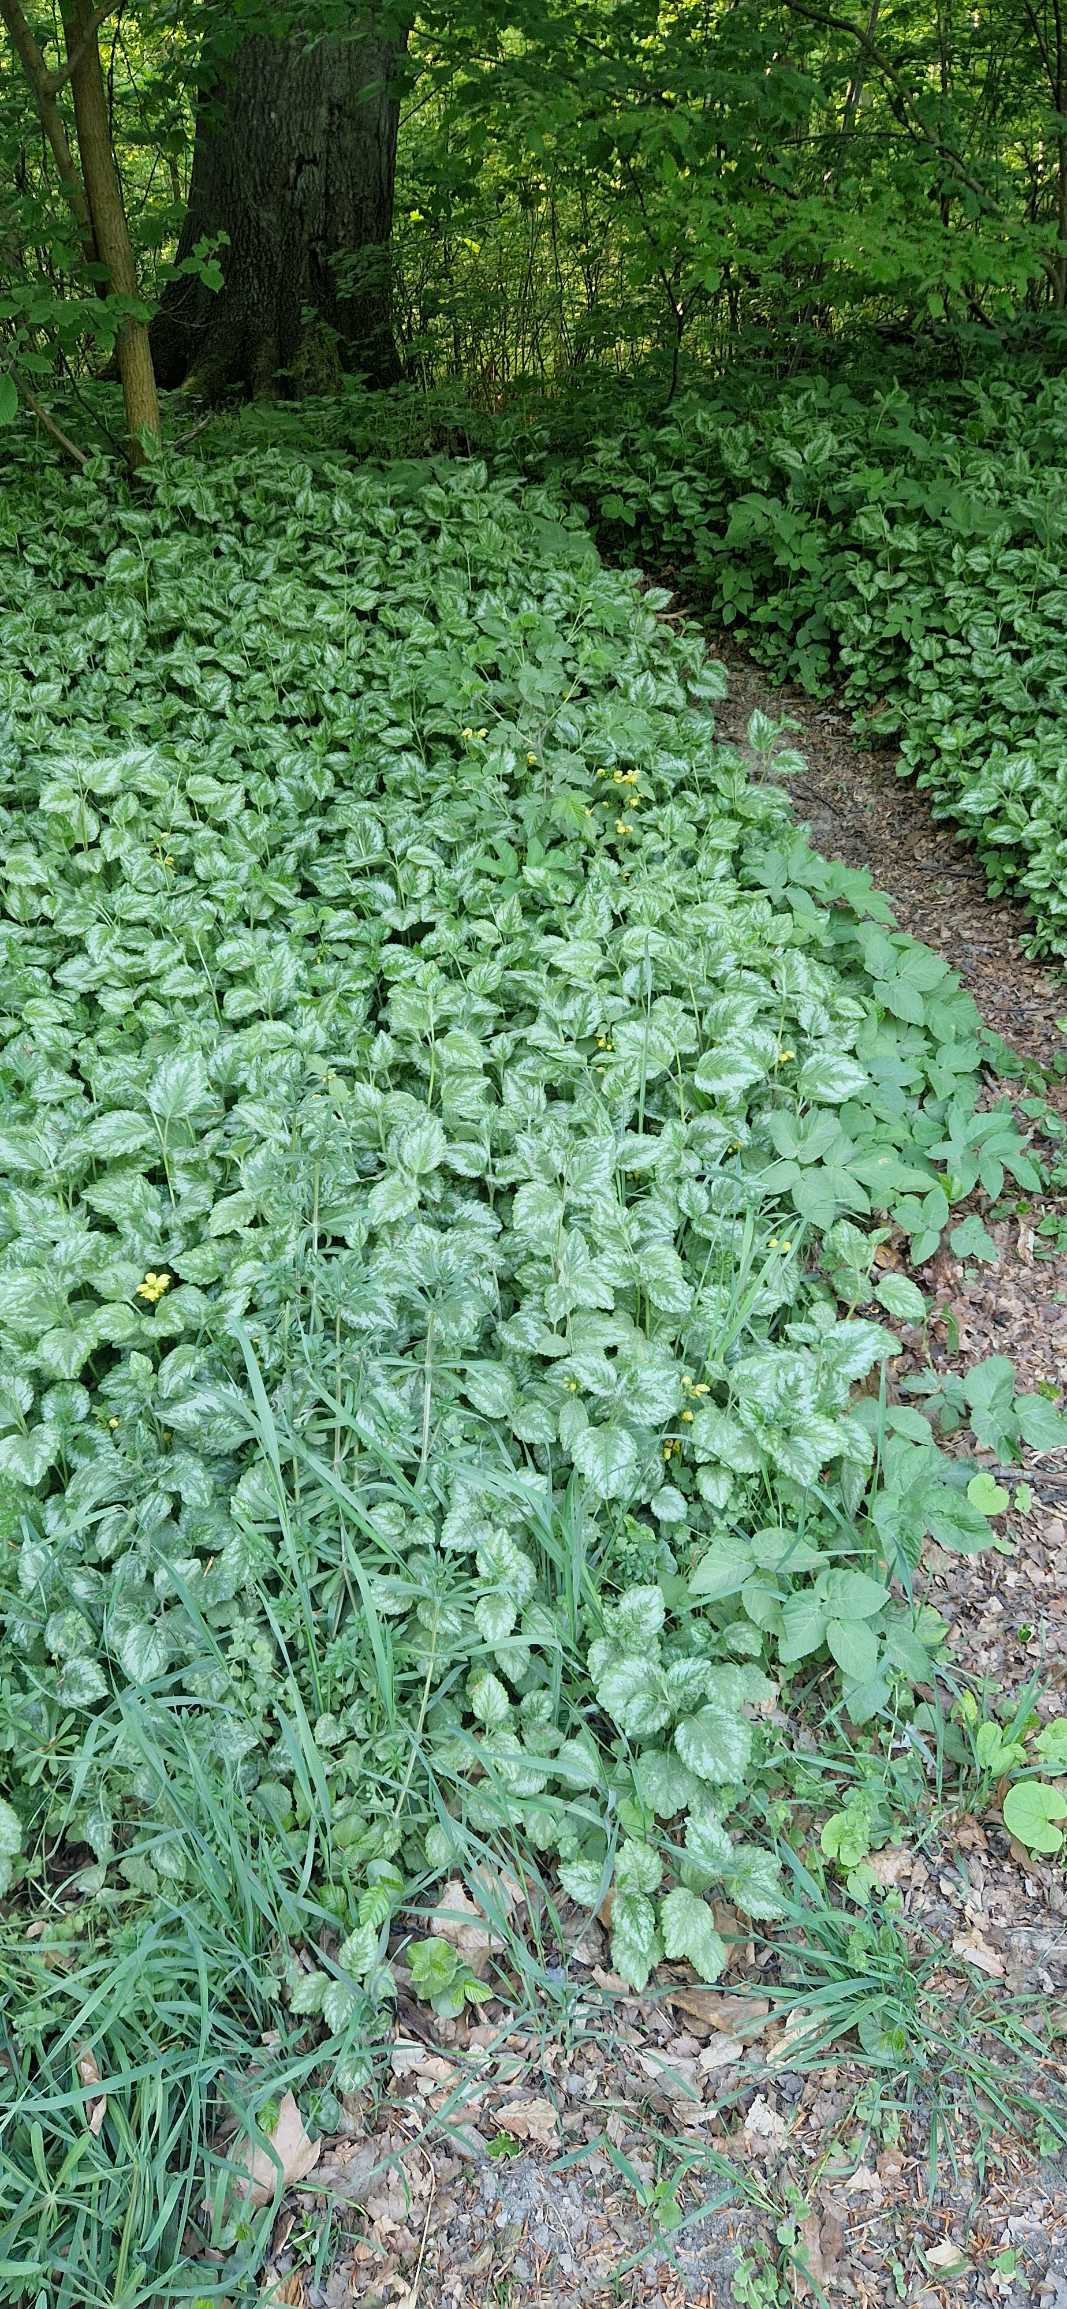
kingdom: Plantae
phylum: Tracheophyta
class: Magnoliopsida
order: Lamiales
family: Lamiaceae
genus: Lamium
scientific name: Lamium galeobdolon
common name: Have-guldnælde
